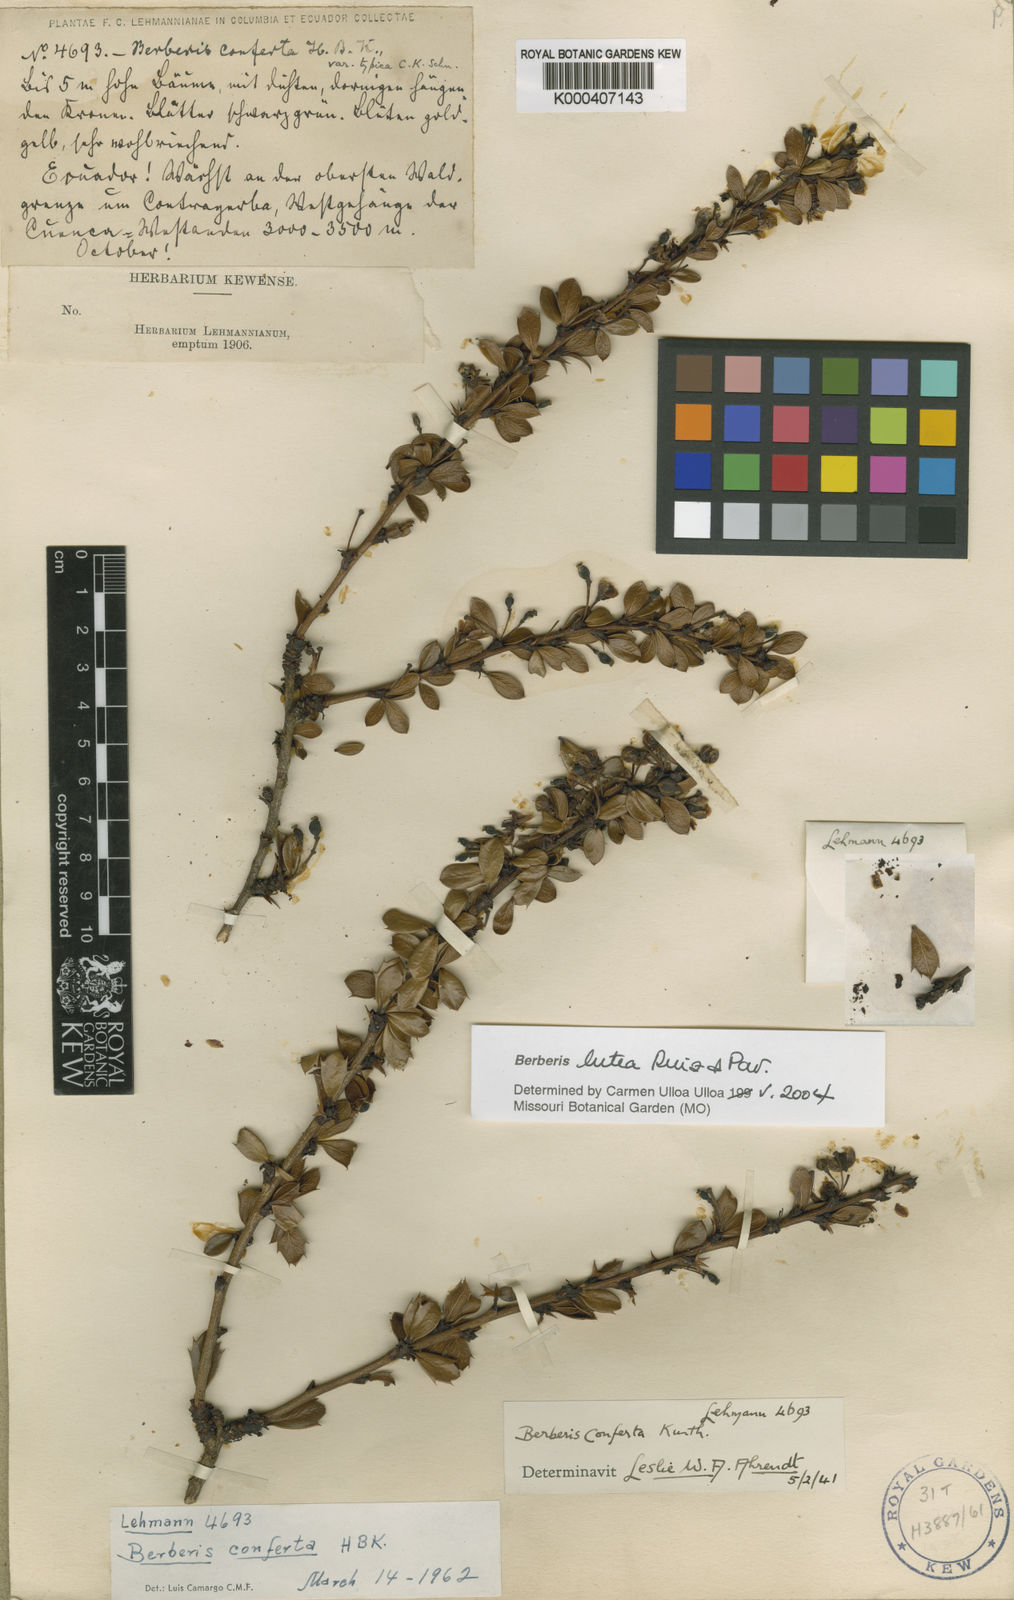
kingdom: Plantae
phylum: Tracheophyta
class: Magnoliopsida
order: Ranunculales
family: Berberidaceae
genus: Berberis
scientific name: Berberis lutea
